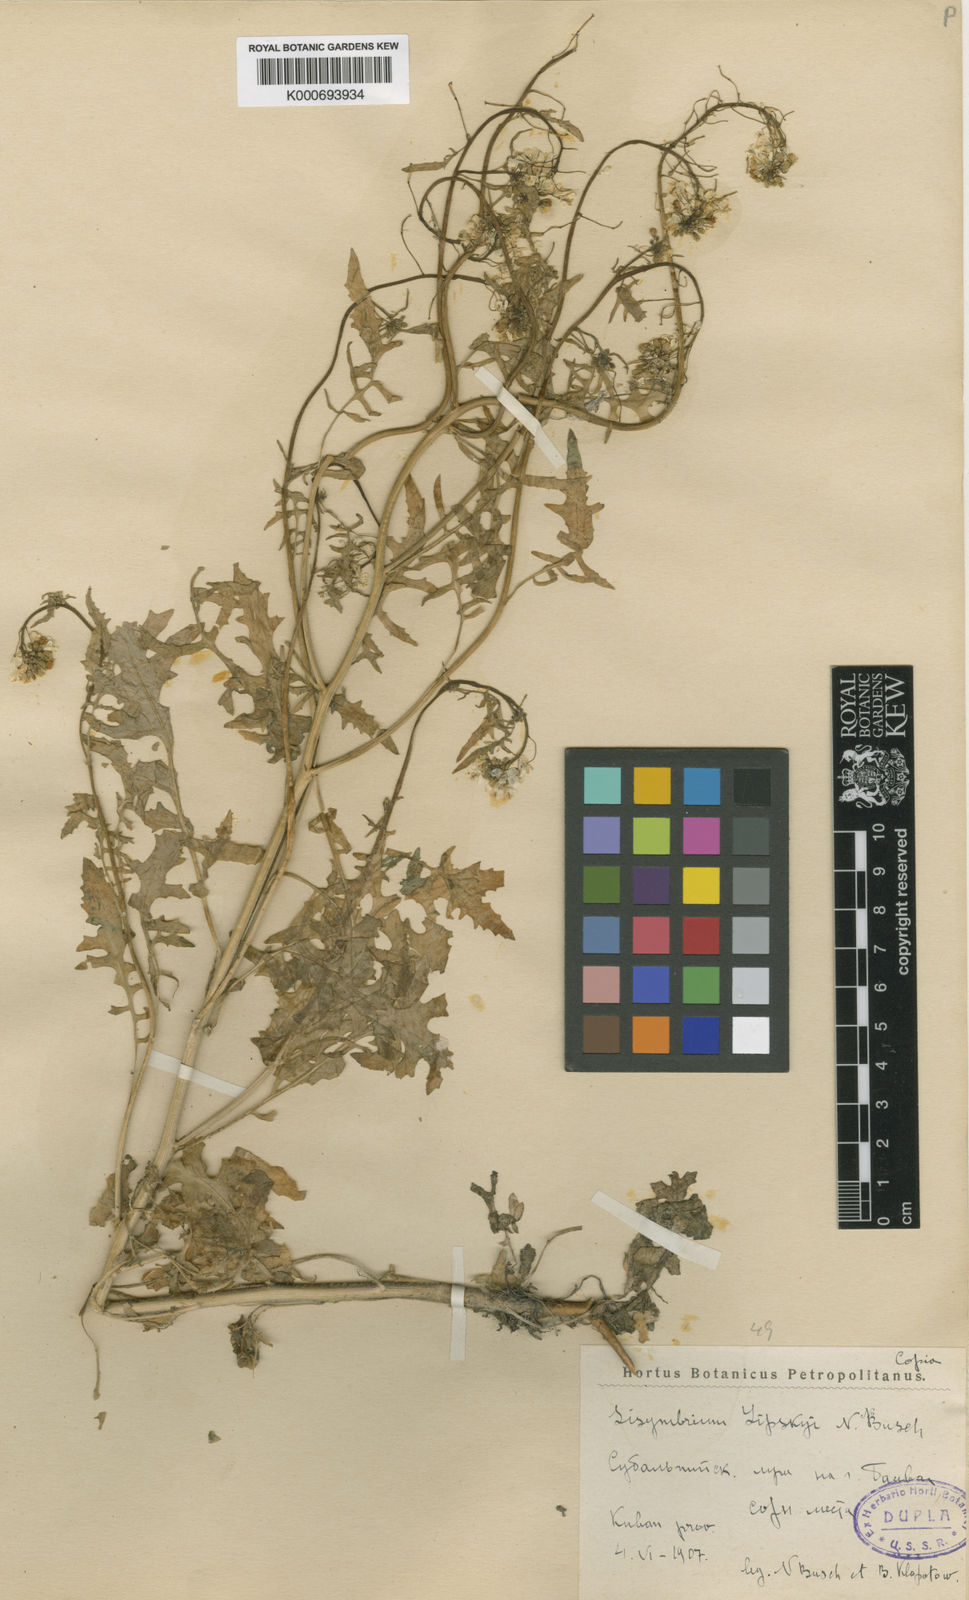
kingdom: Plantae
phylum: Tracheophyta
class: Magnoliopsida
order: Brassicales
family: Brassicaceae
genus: Sisymbrium
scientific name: Sisymbrium erucastrifolium
